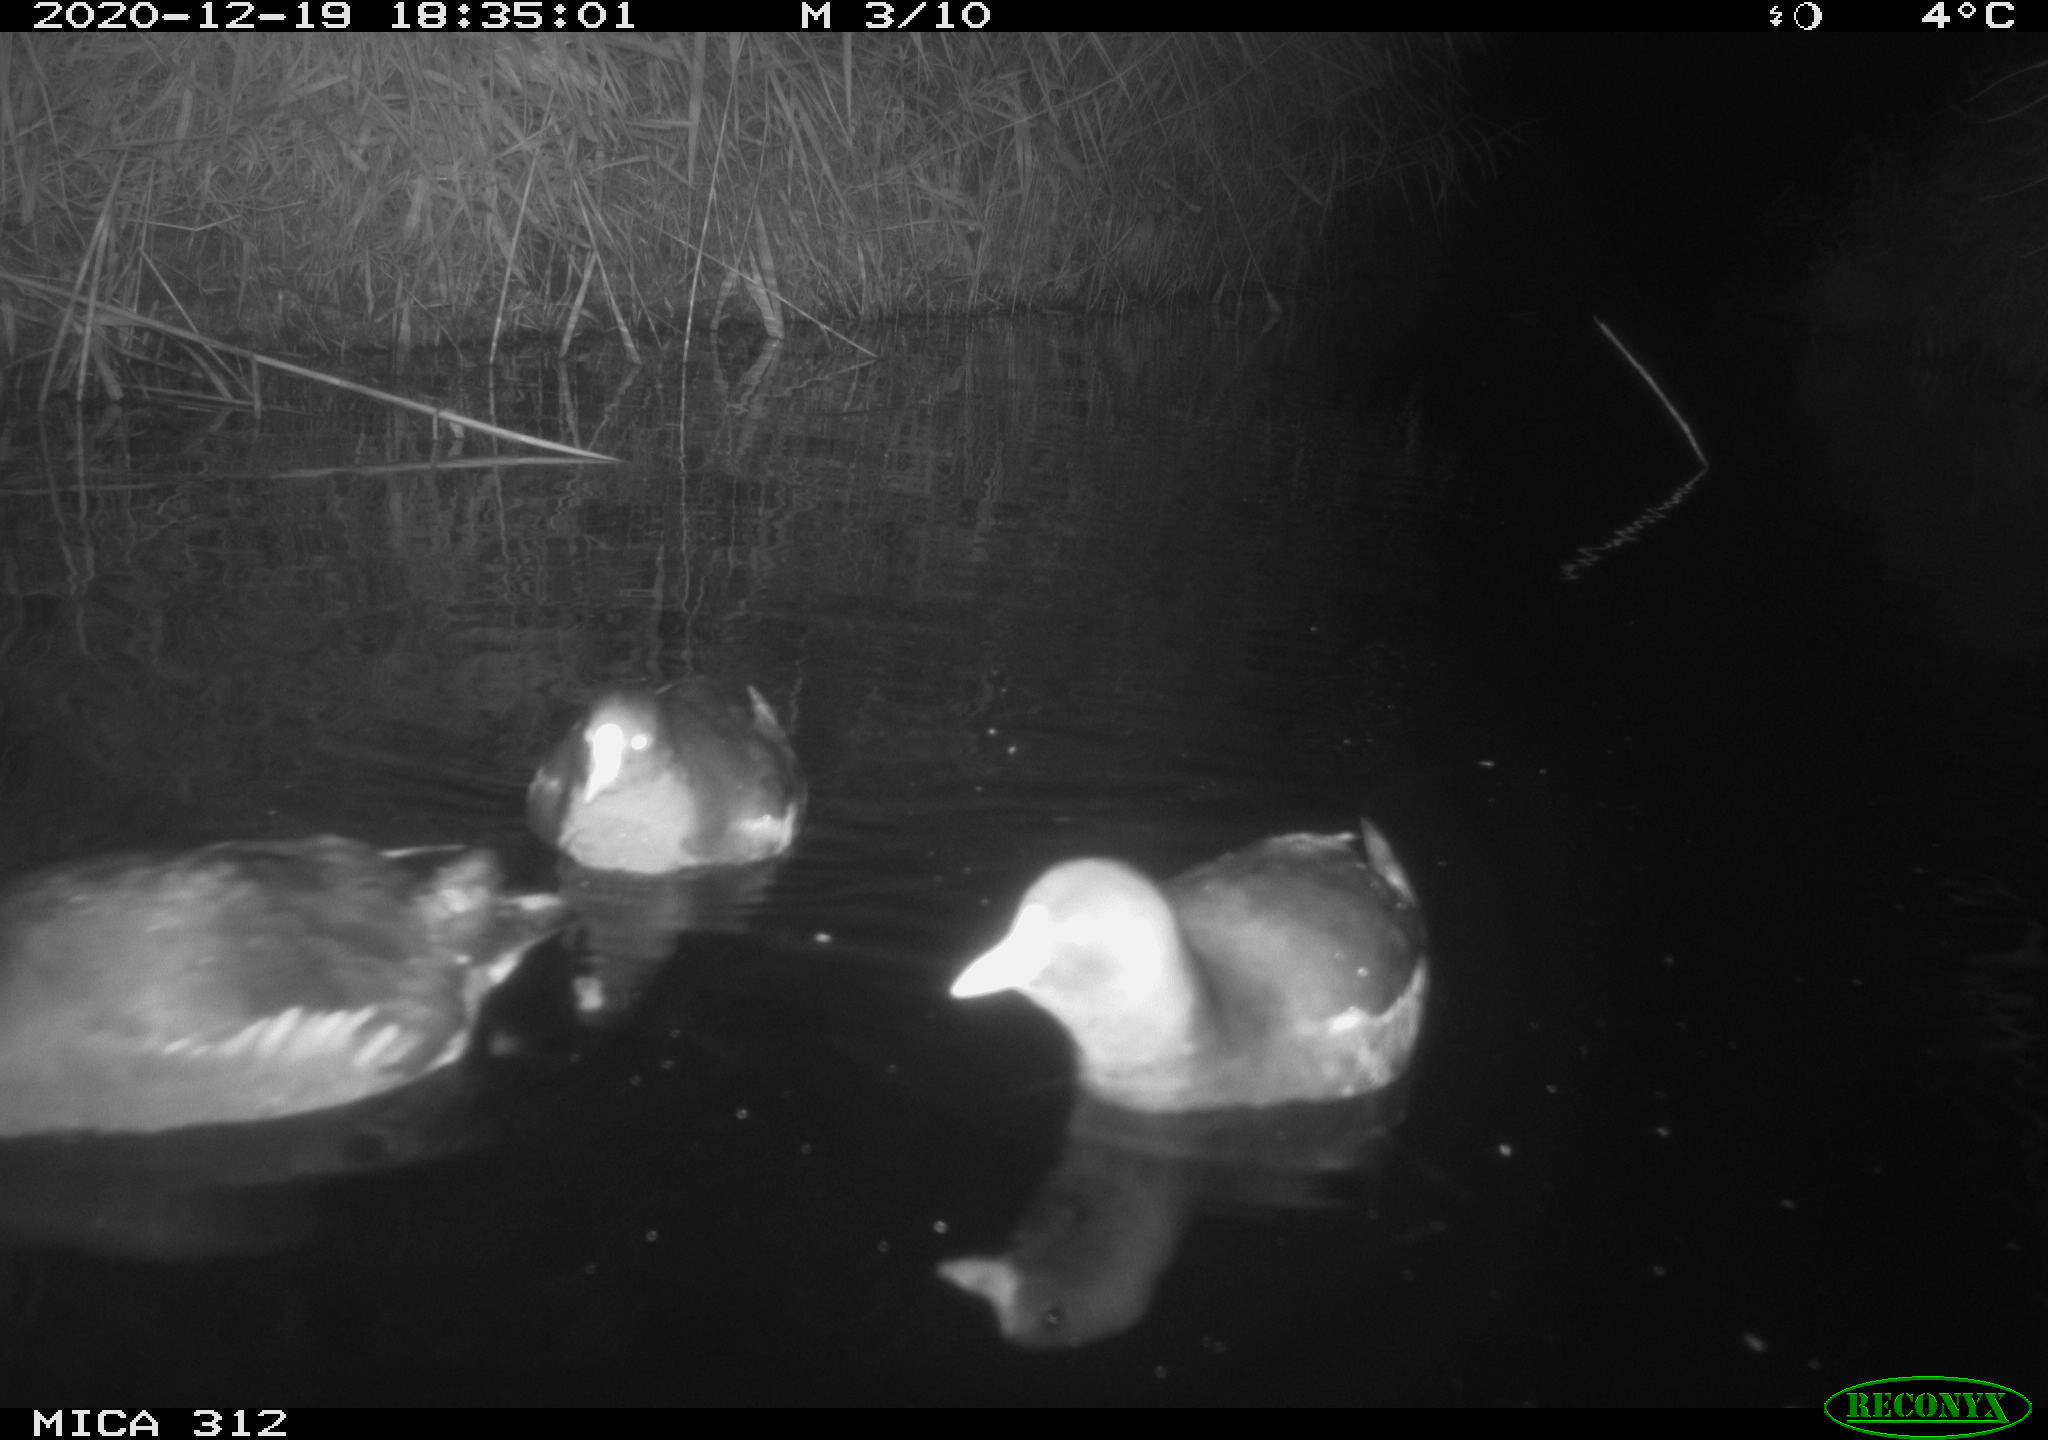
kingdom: Animalia
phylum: Chordata
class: Aves
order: Gruiformes
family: Rallidae
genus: Gallinula
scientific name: Gallinula chloropus
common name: Common moorhen
